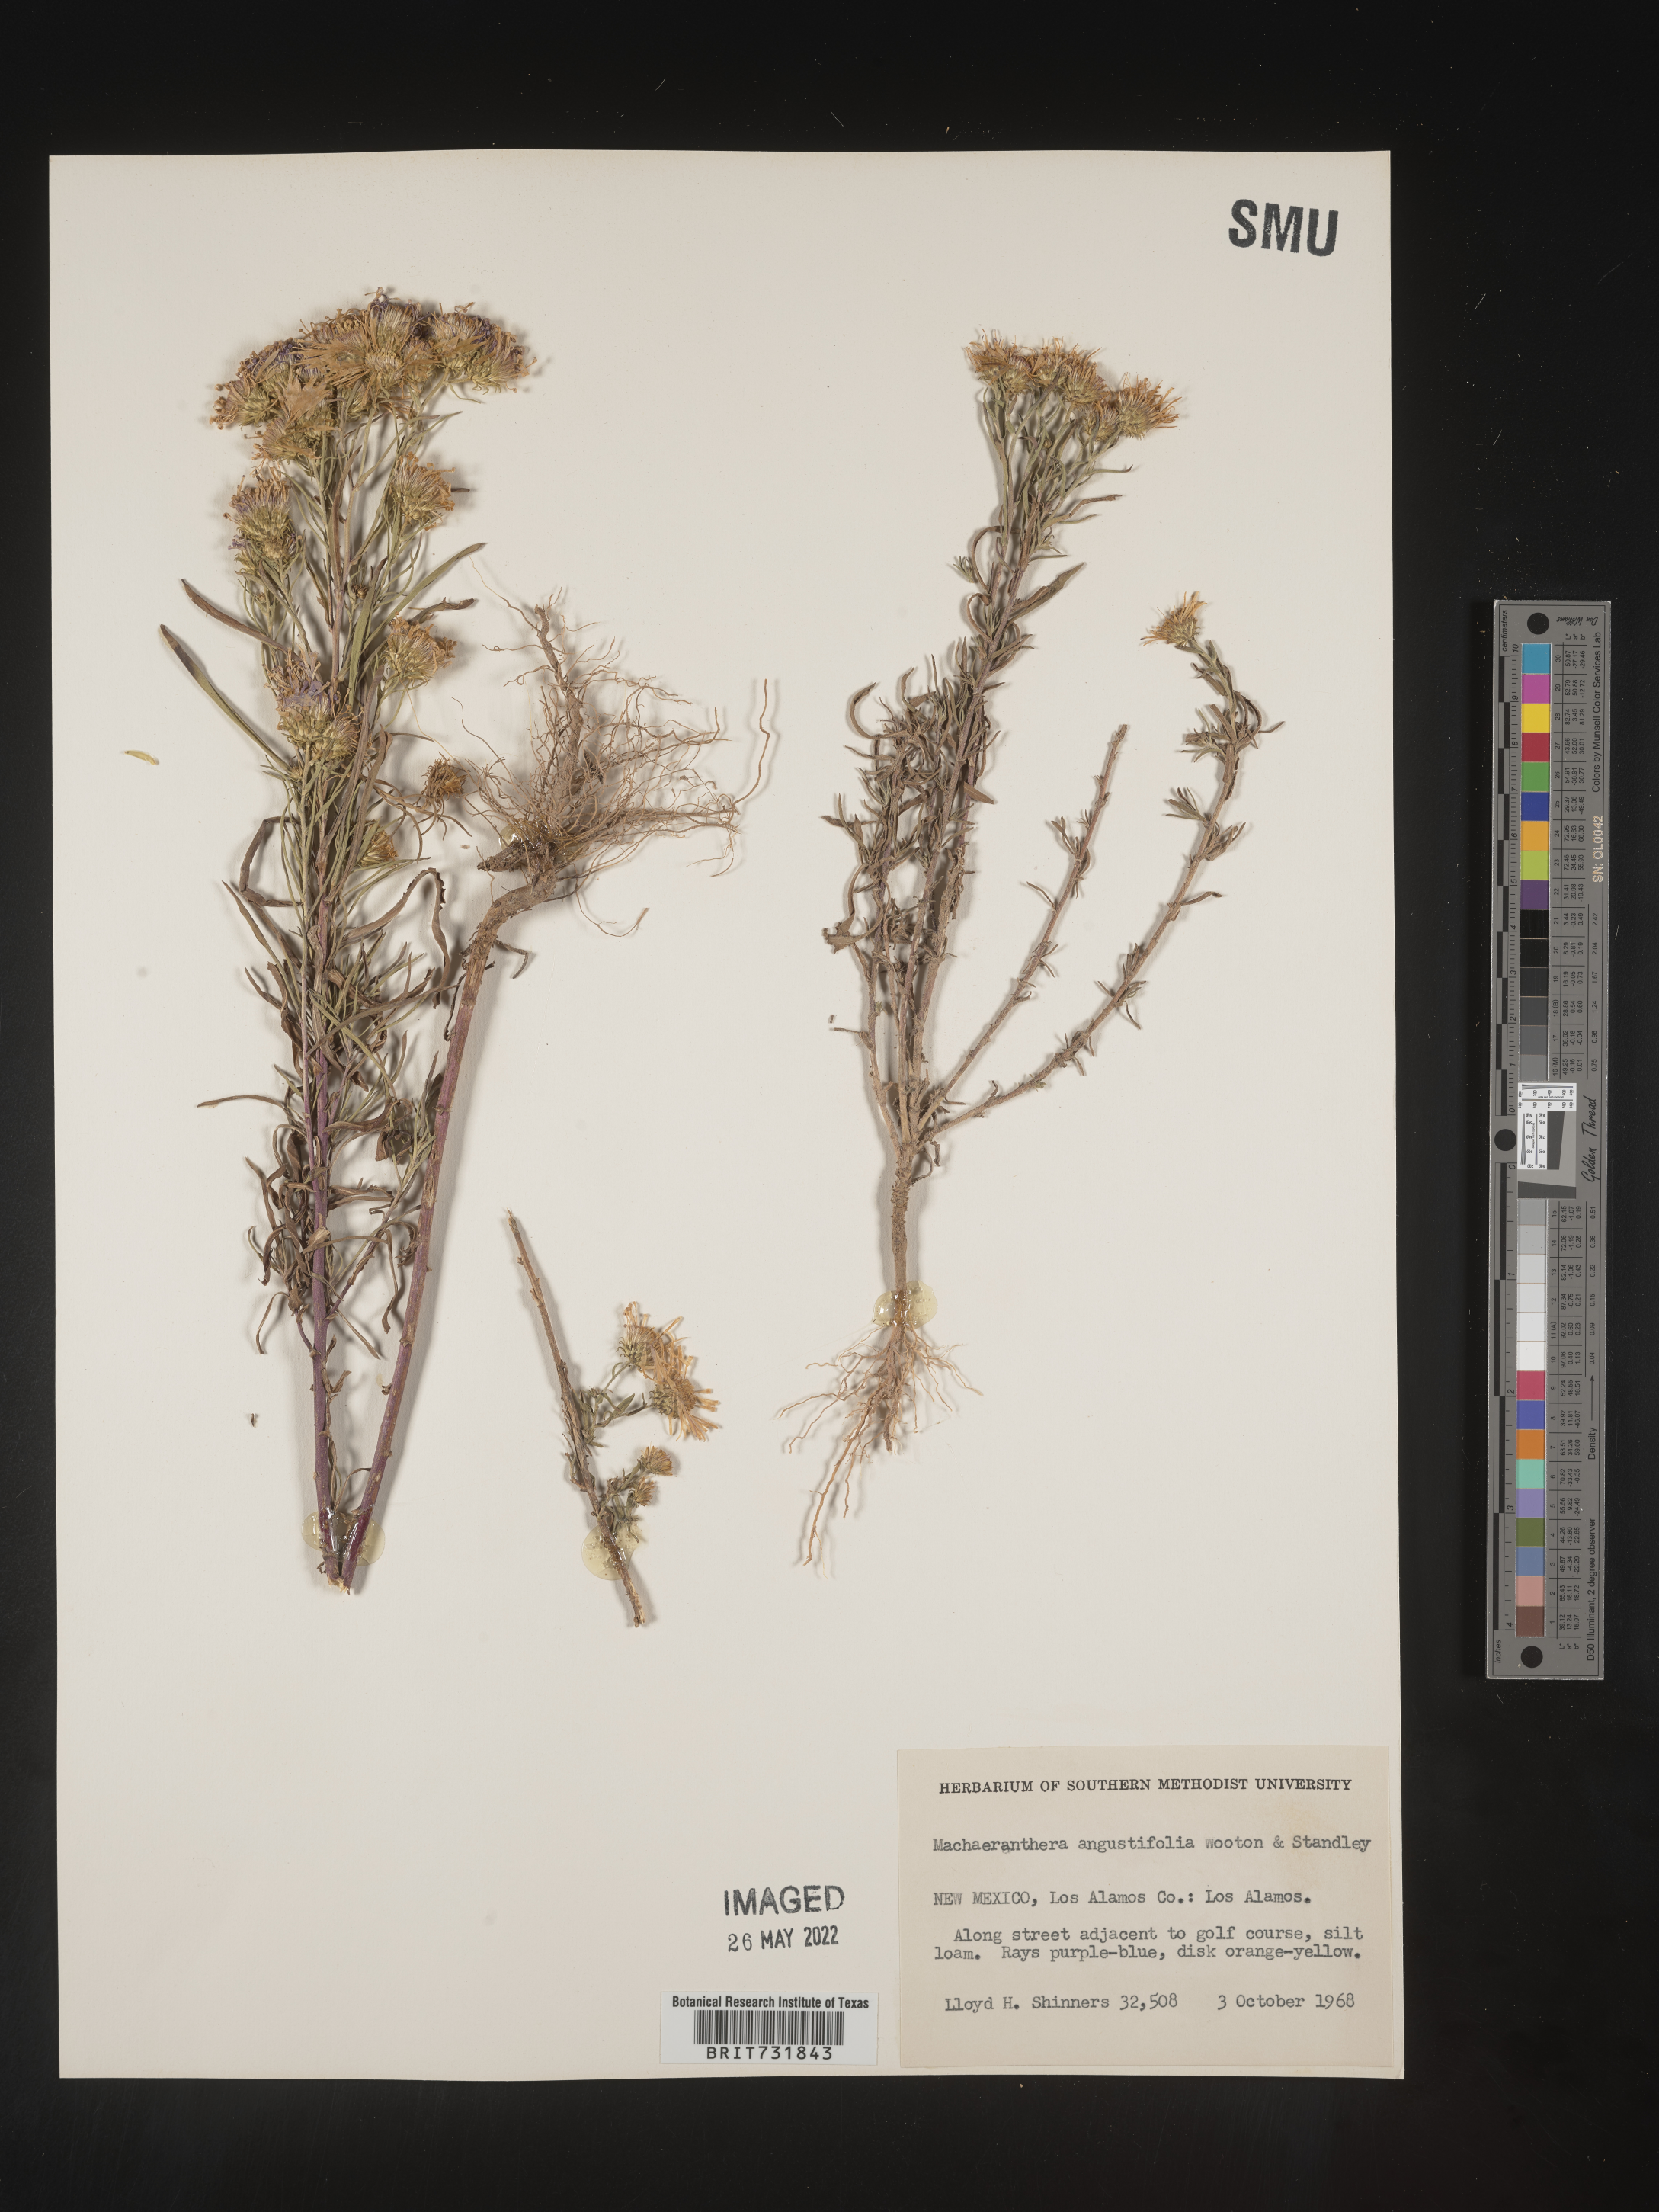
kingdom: Plantae
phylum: Tracheophyta
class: Magnoliopsida
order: Asterales
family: Asteraceae
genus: Dieteria
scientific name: Dieteria canescens
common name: Hoary-aster
